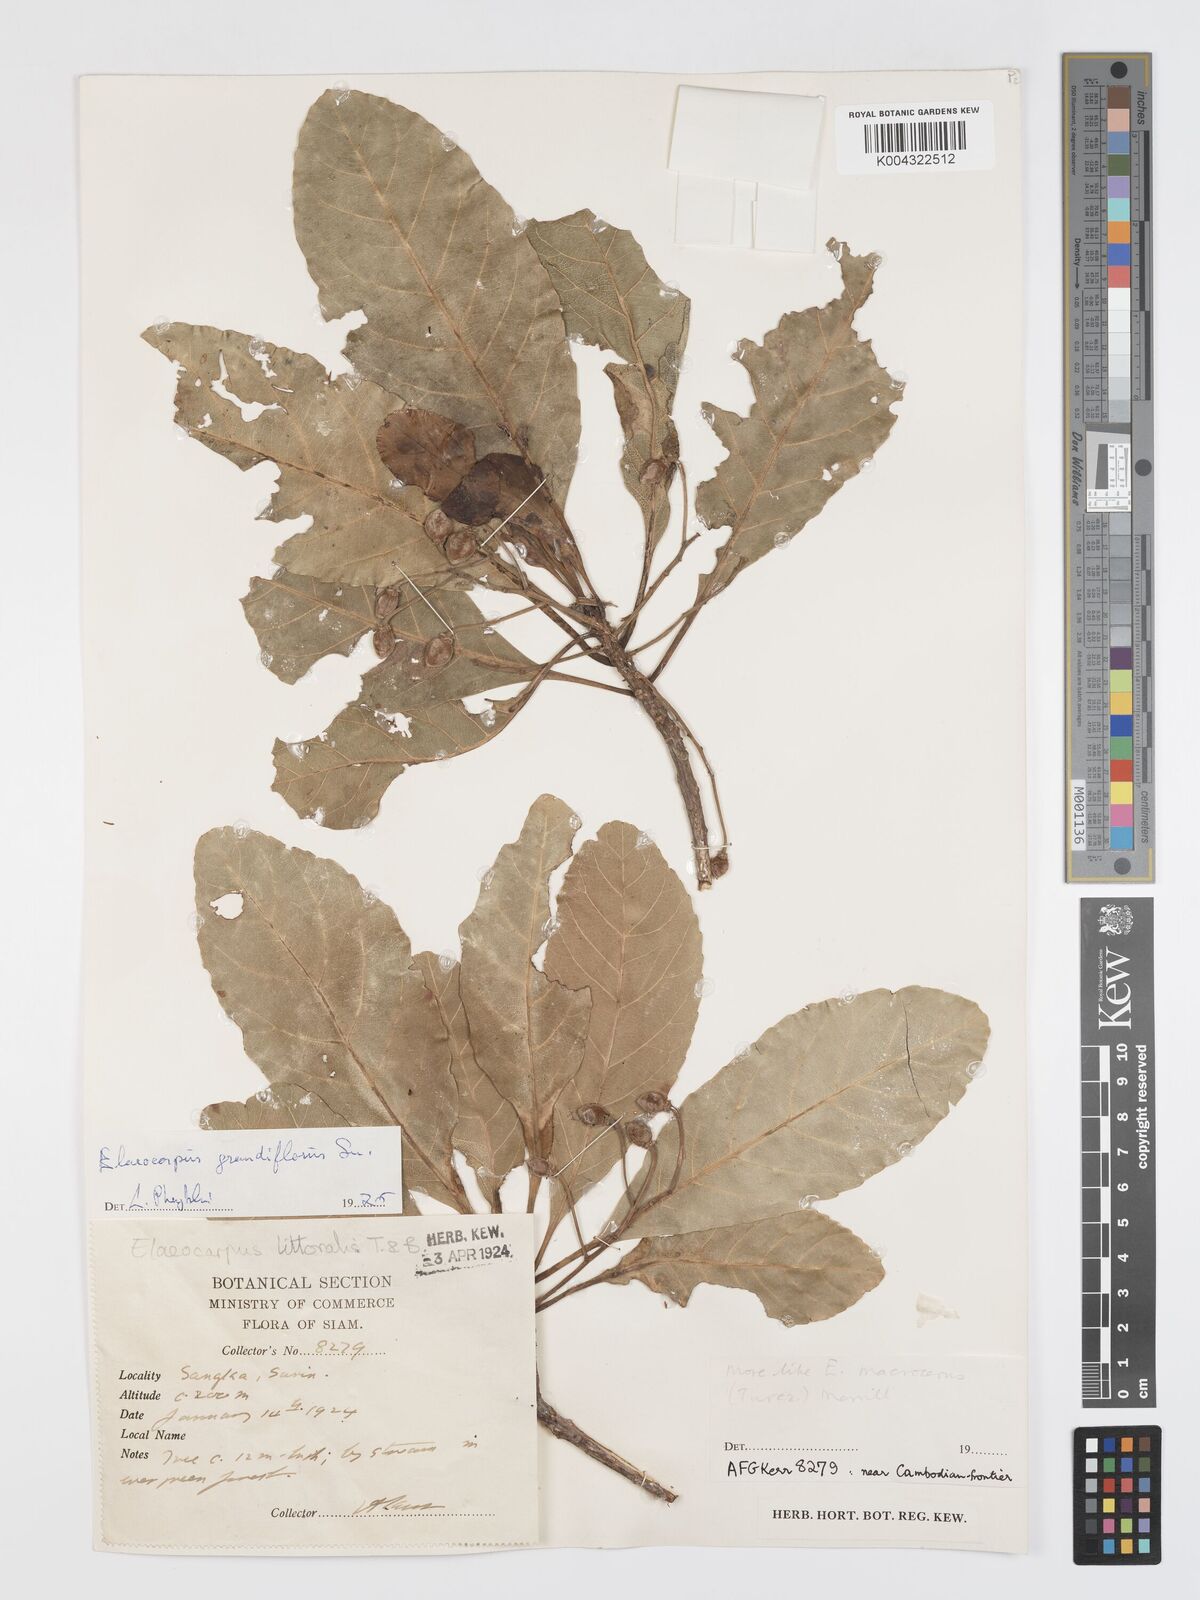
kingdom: Plantae
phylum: Tracheophyta
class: Magnoliopsida
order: Oxalidales
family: Elaeocarpaceae
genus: Elaeocarpus
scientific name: Elaeocarpus macrocerus
